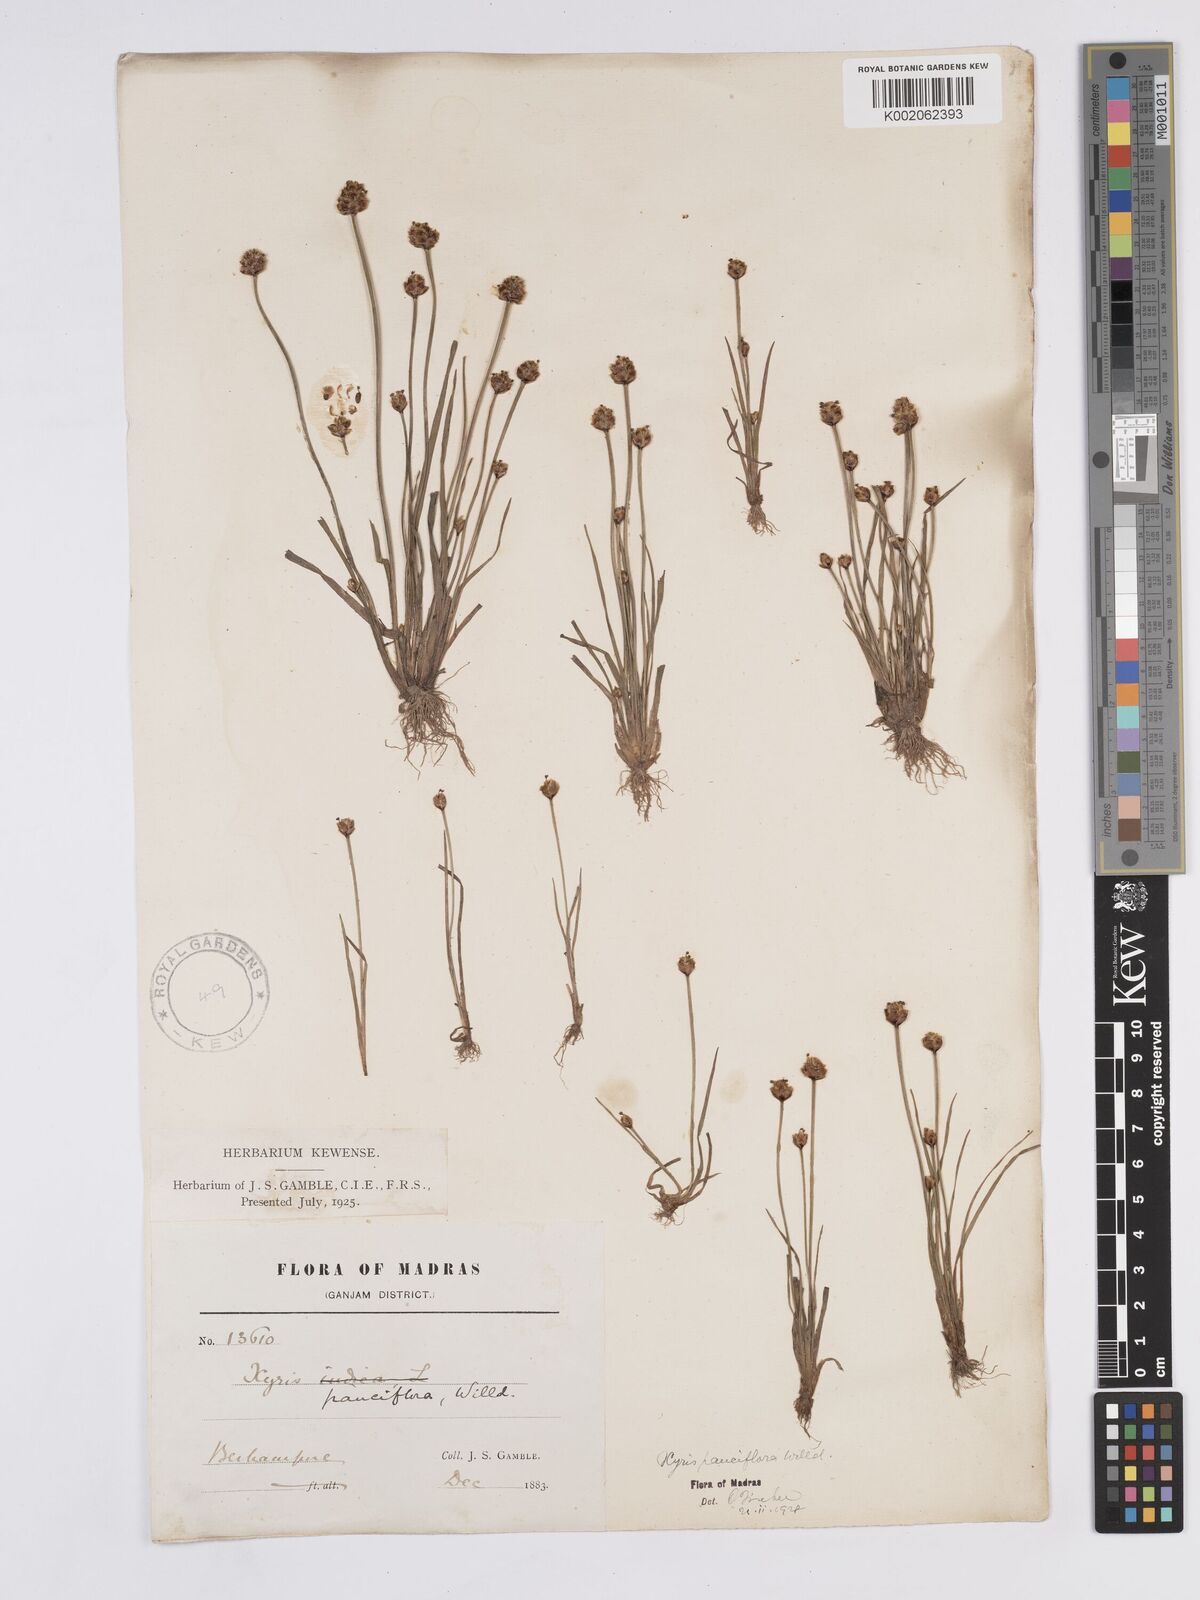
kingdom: Plantae
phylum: Tracheophyta
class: Liliopsida
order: Poales
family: Xyridaceae
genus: Xyris
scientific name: Xyris pauciflora
